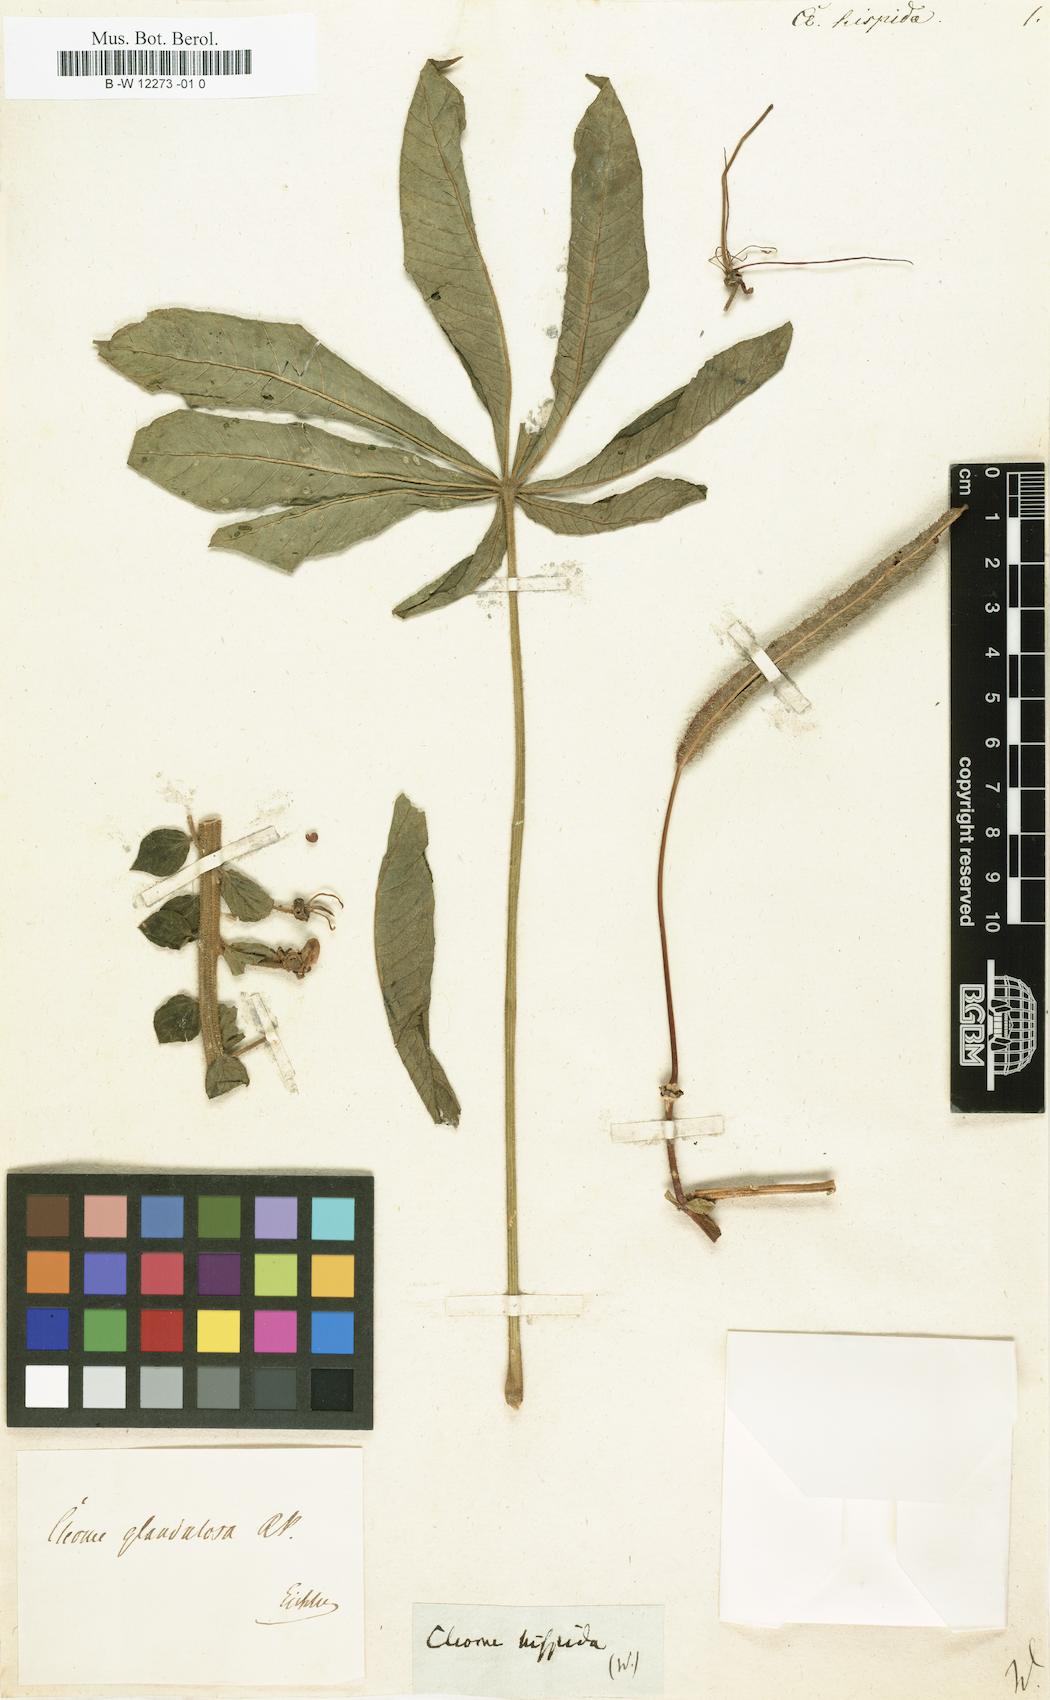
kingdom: Plantae
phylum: Tracheophyta
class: Magnoliopsida
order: Brassicales
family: Cleomaceae
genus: Rorida
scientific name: Rorida
